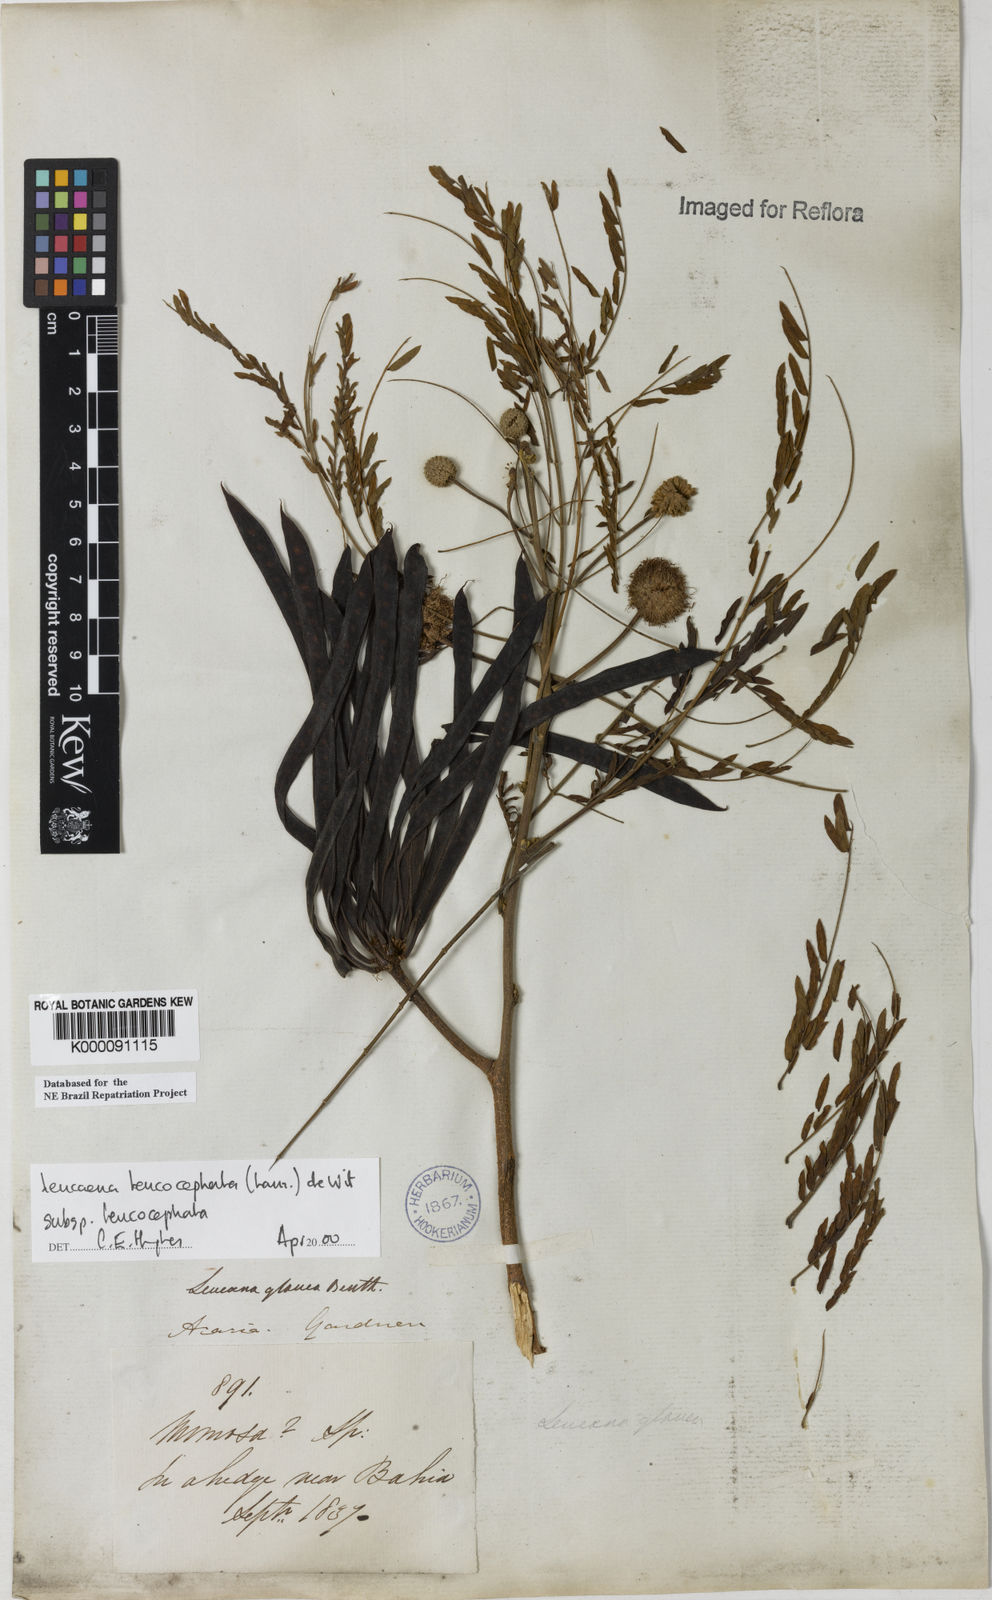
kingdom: Plantae
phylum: Tracheophyta
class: Magnoliopsida
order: Fabales
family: Fabaceae
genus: Leucaena
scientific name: Leucaena leucocephala
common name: White leadtree
